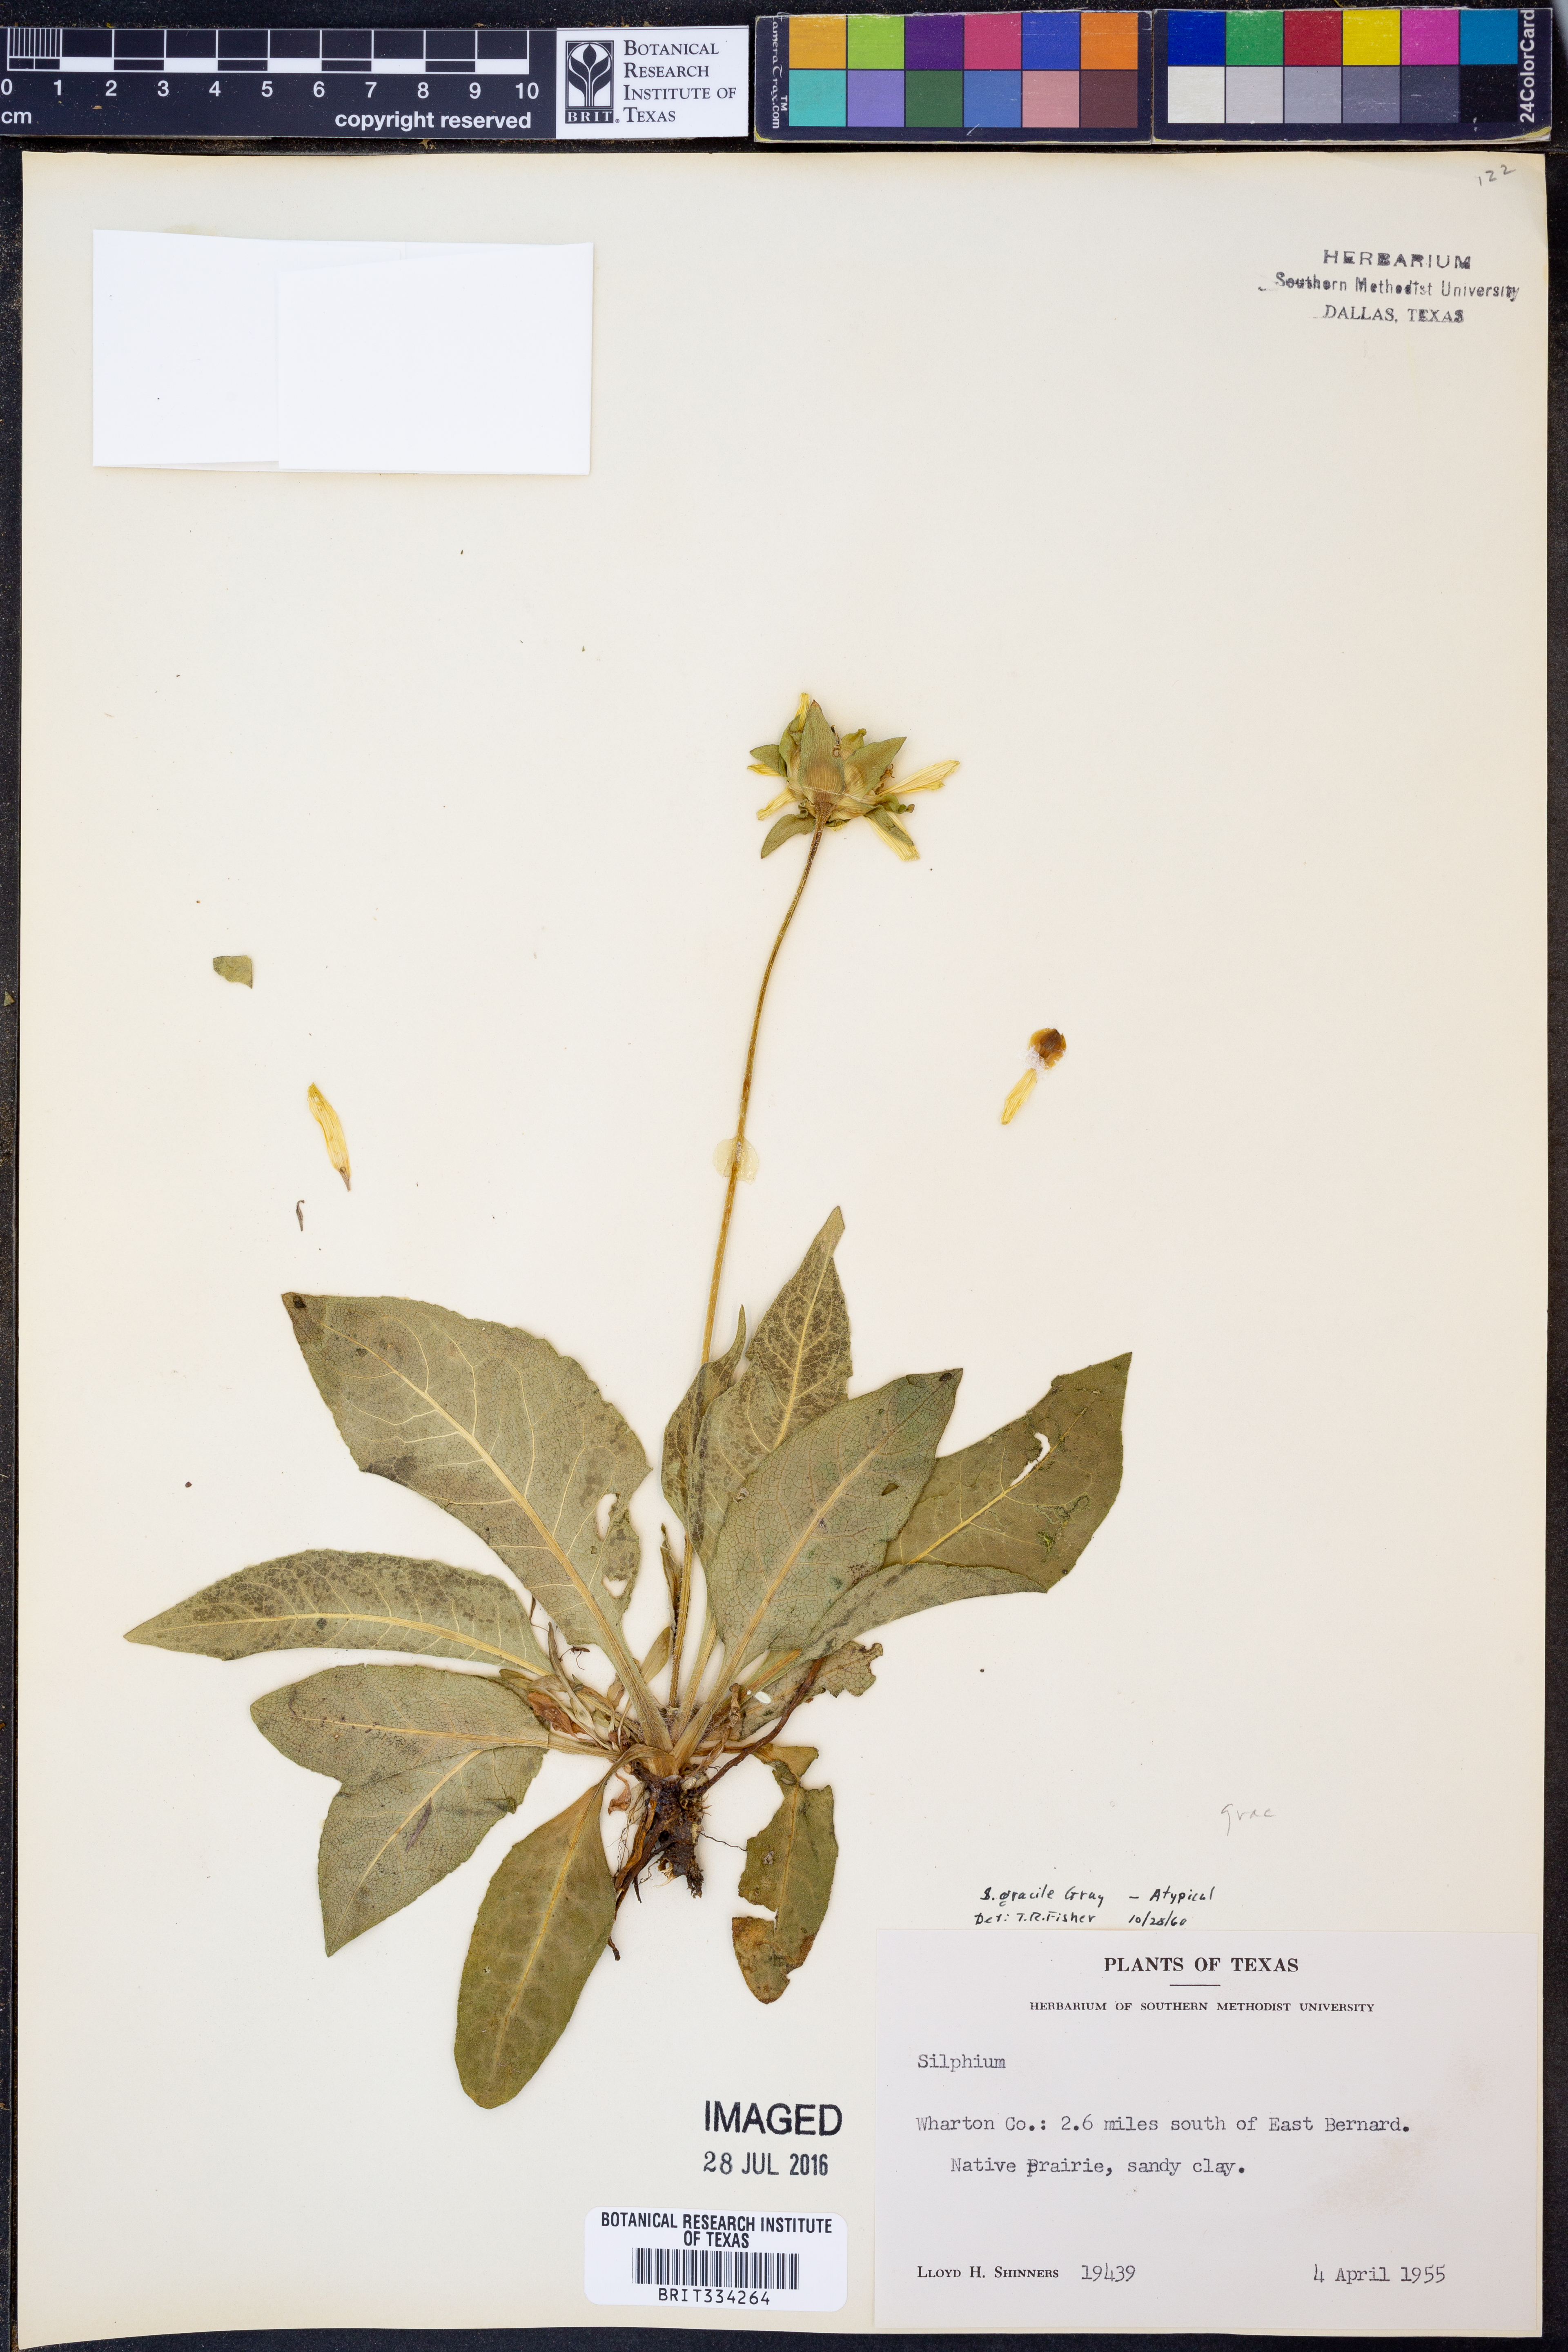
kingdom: Plantae
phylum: Tracheophyta
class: Magnoliopsida
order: Asterales
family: Asteraceae
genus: Silphium
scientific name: Silphium radula
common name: Roughleaf rosinweed
